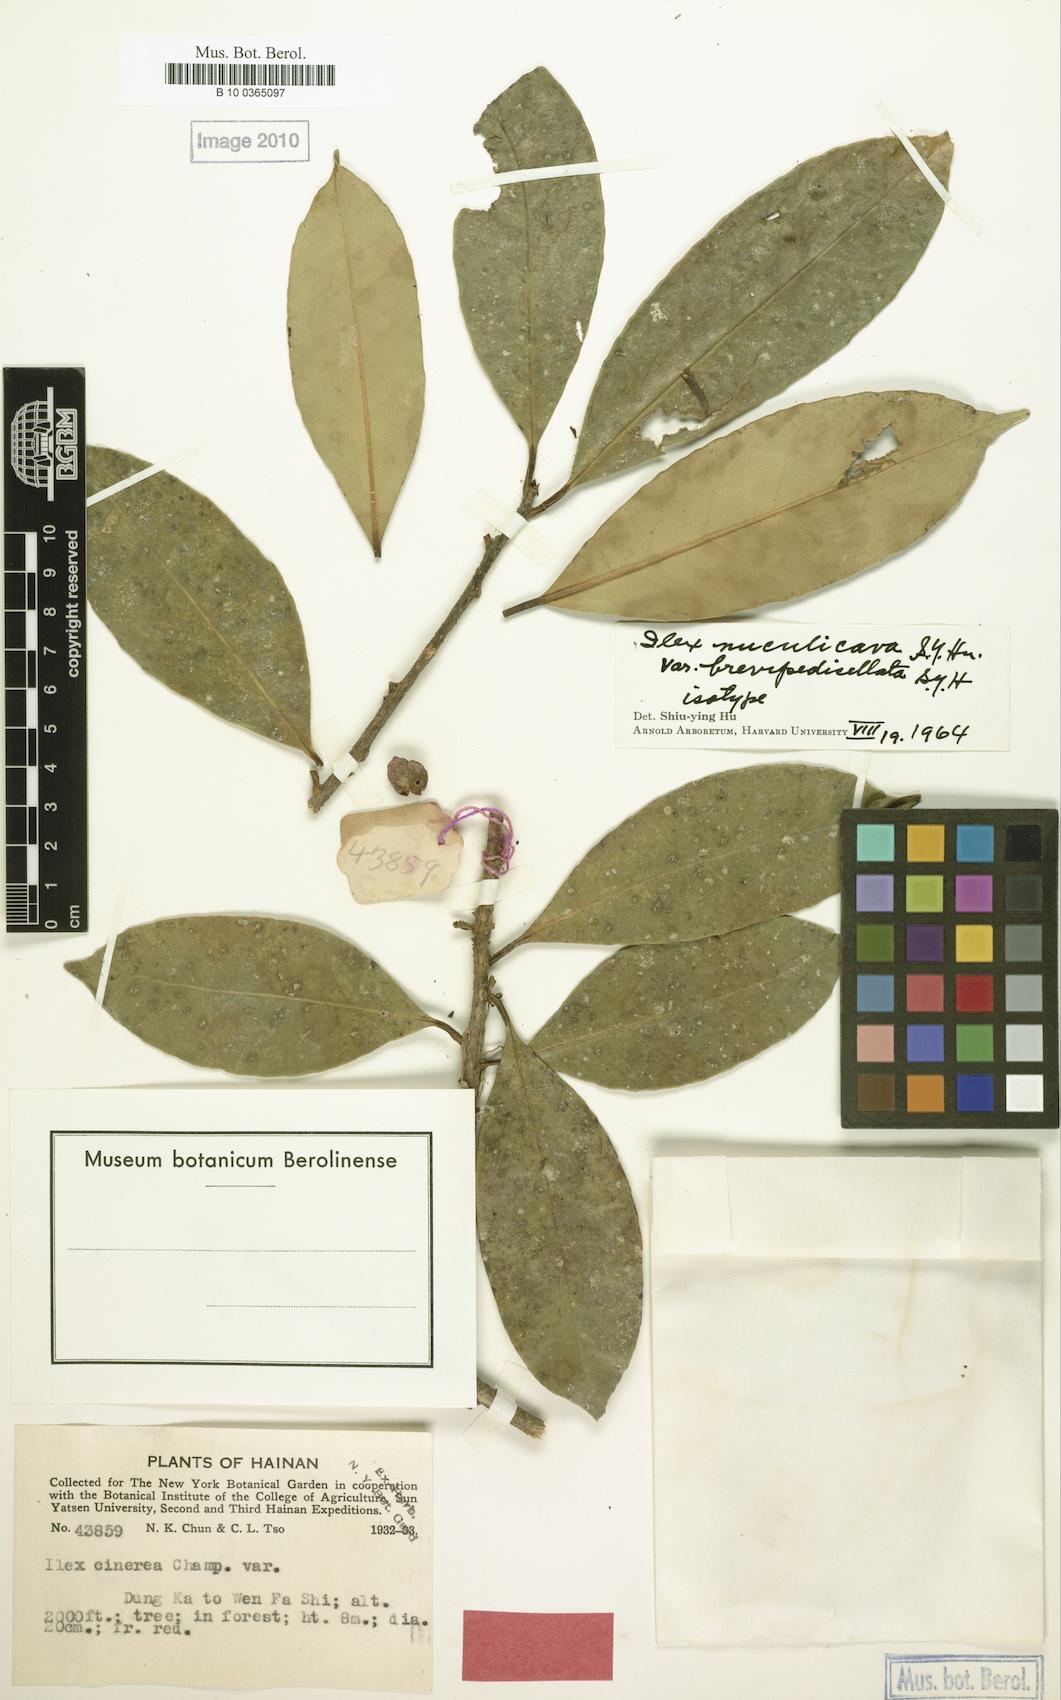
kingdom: Plantae
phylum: Tracheophyta
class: Magnoliopsida
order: Aquifoliales
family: Aquifoliaceae
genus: Ilex
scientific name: Ilex nuculicava
